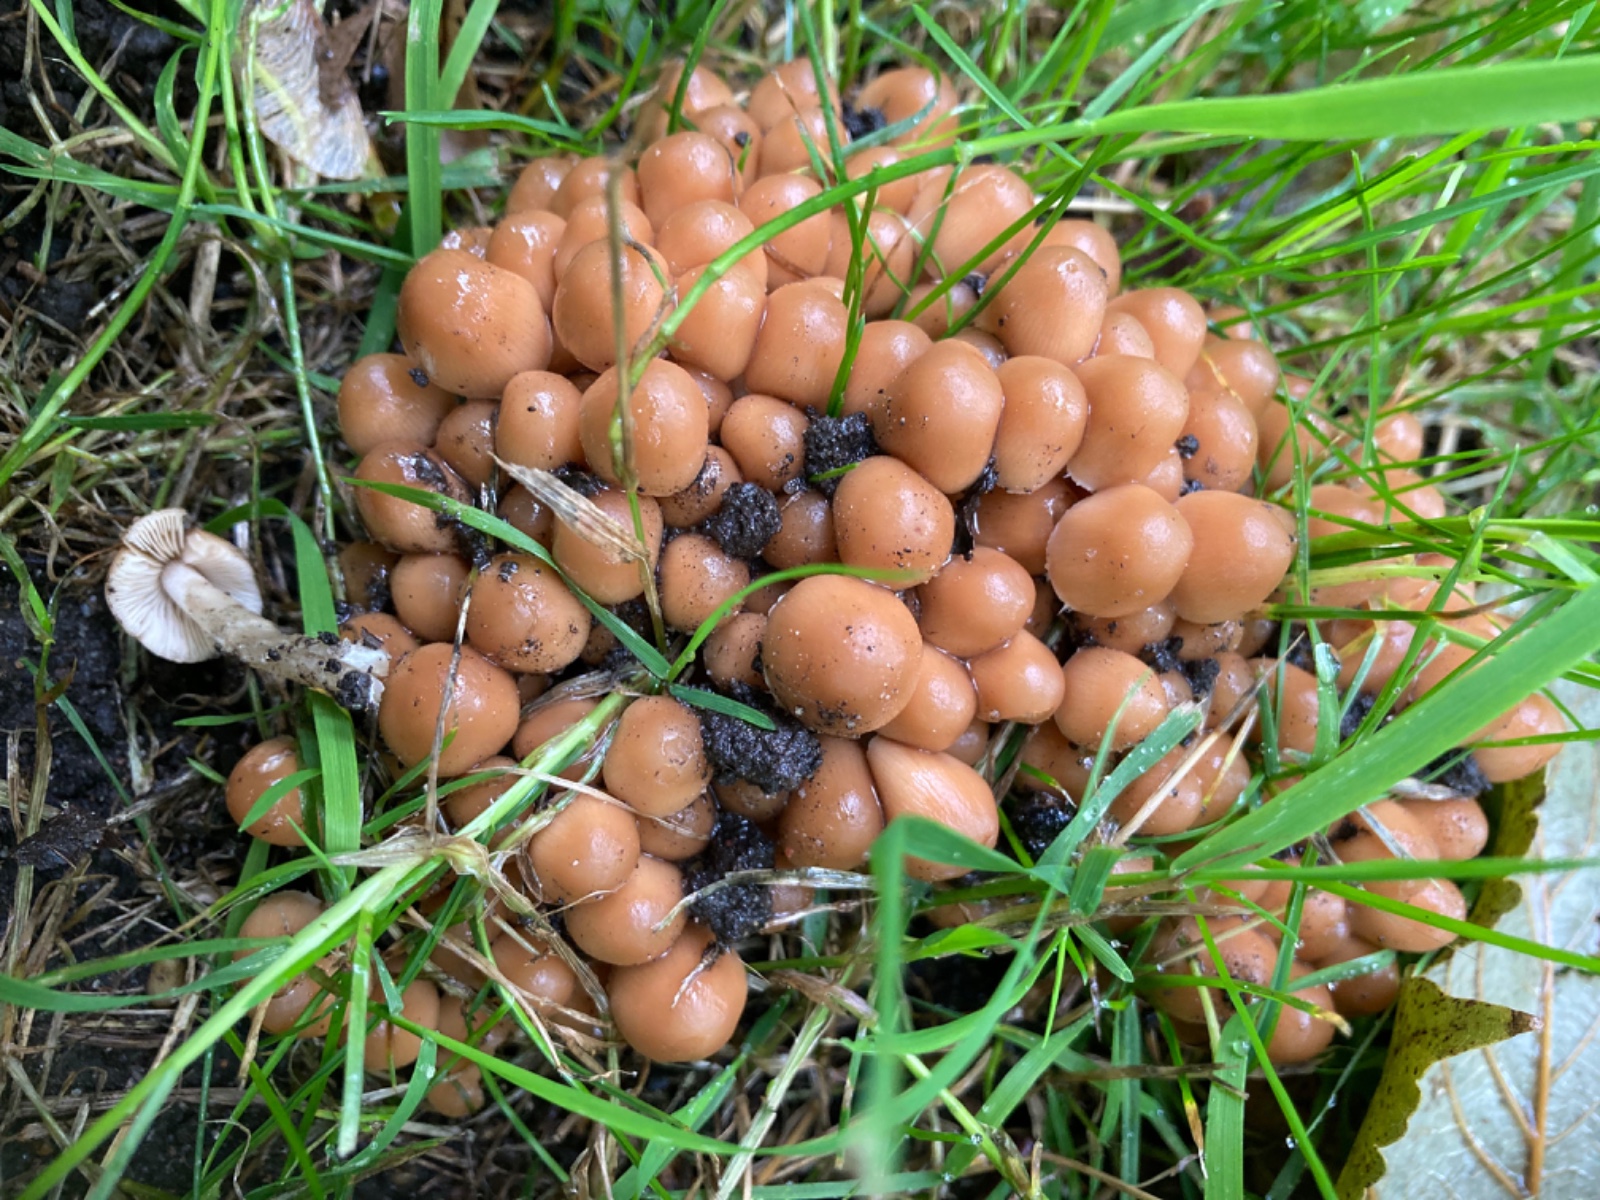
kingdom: Fungi
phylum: Basidiomycota
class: Agaricomycetes
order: Agaricales
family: Psathyrellaceae
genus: Britzelmayria
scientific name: Britzelmayria multipedata
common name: knippe-mørkhat
